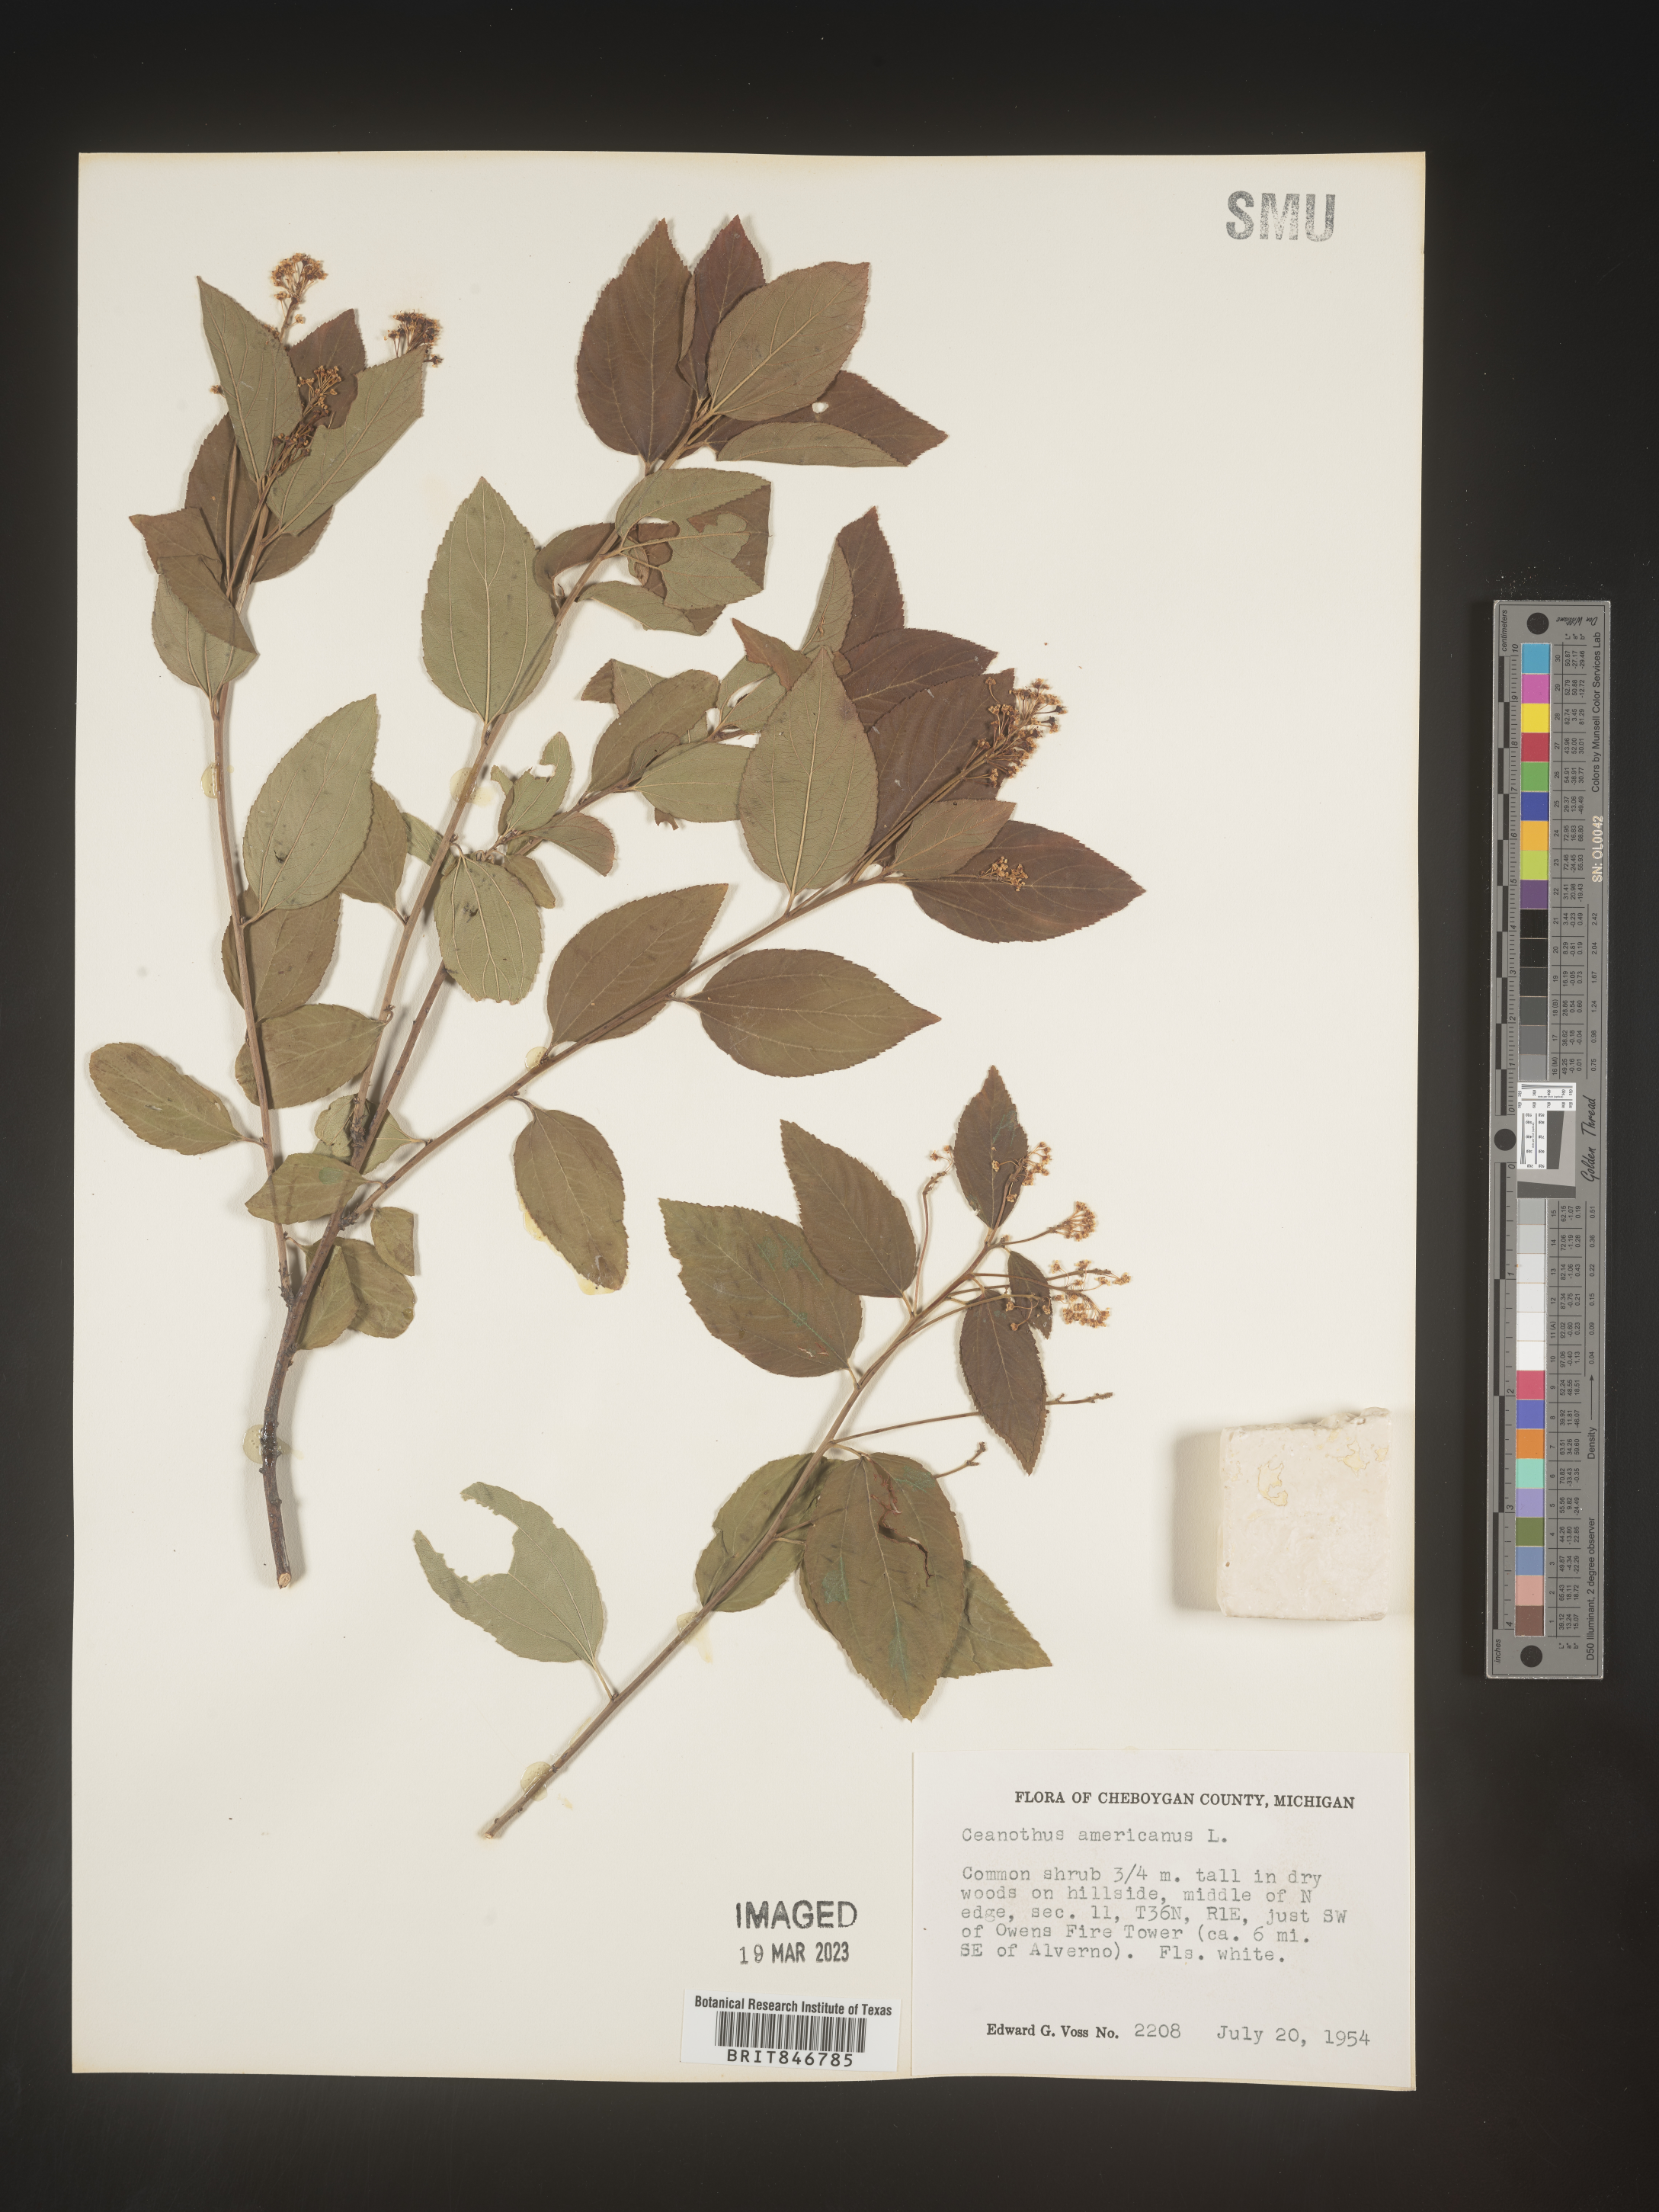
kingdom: Plantae
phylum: Tracheophyta
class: Magnoliopsida
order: Rosales
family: Rhamnaceae
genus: Ceanothus
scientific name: Ceanothus americanus
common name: Redroot
